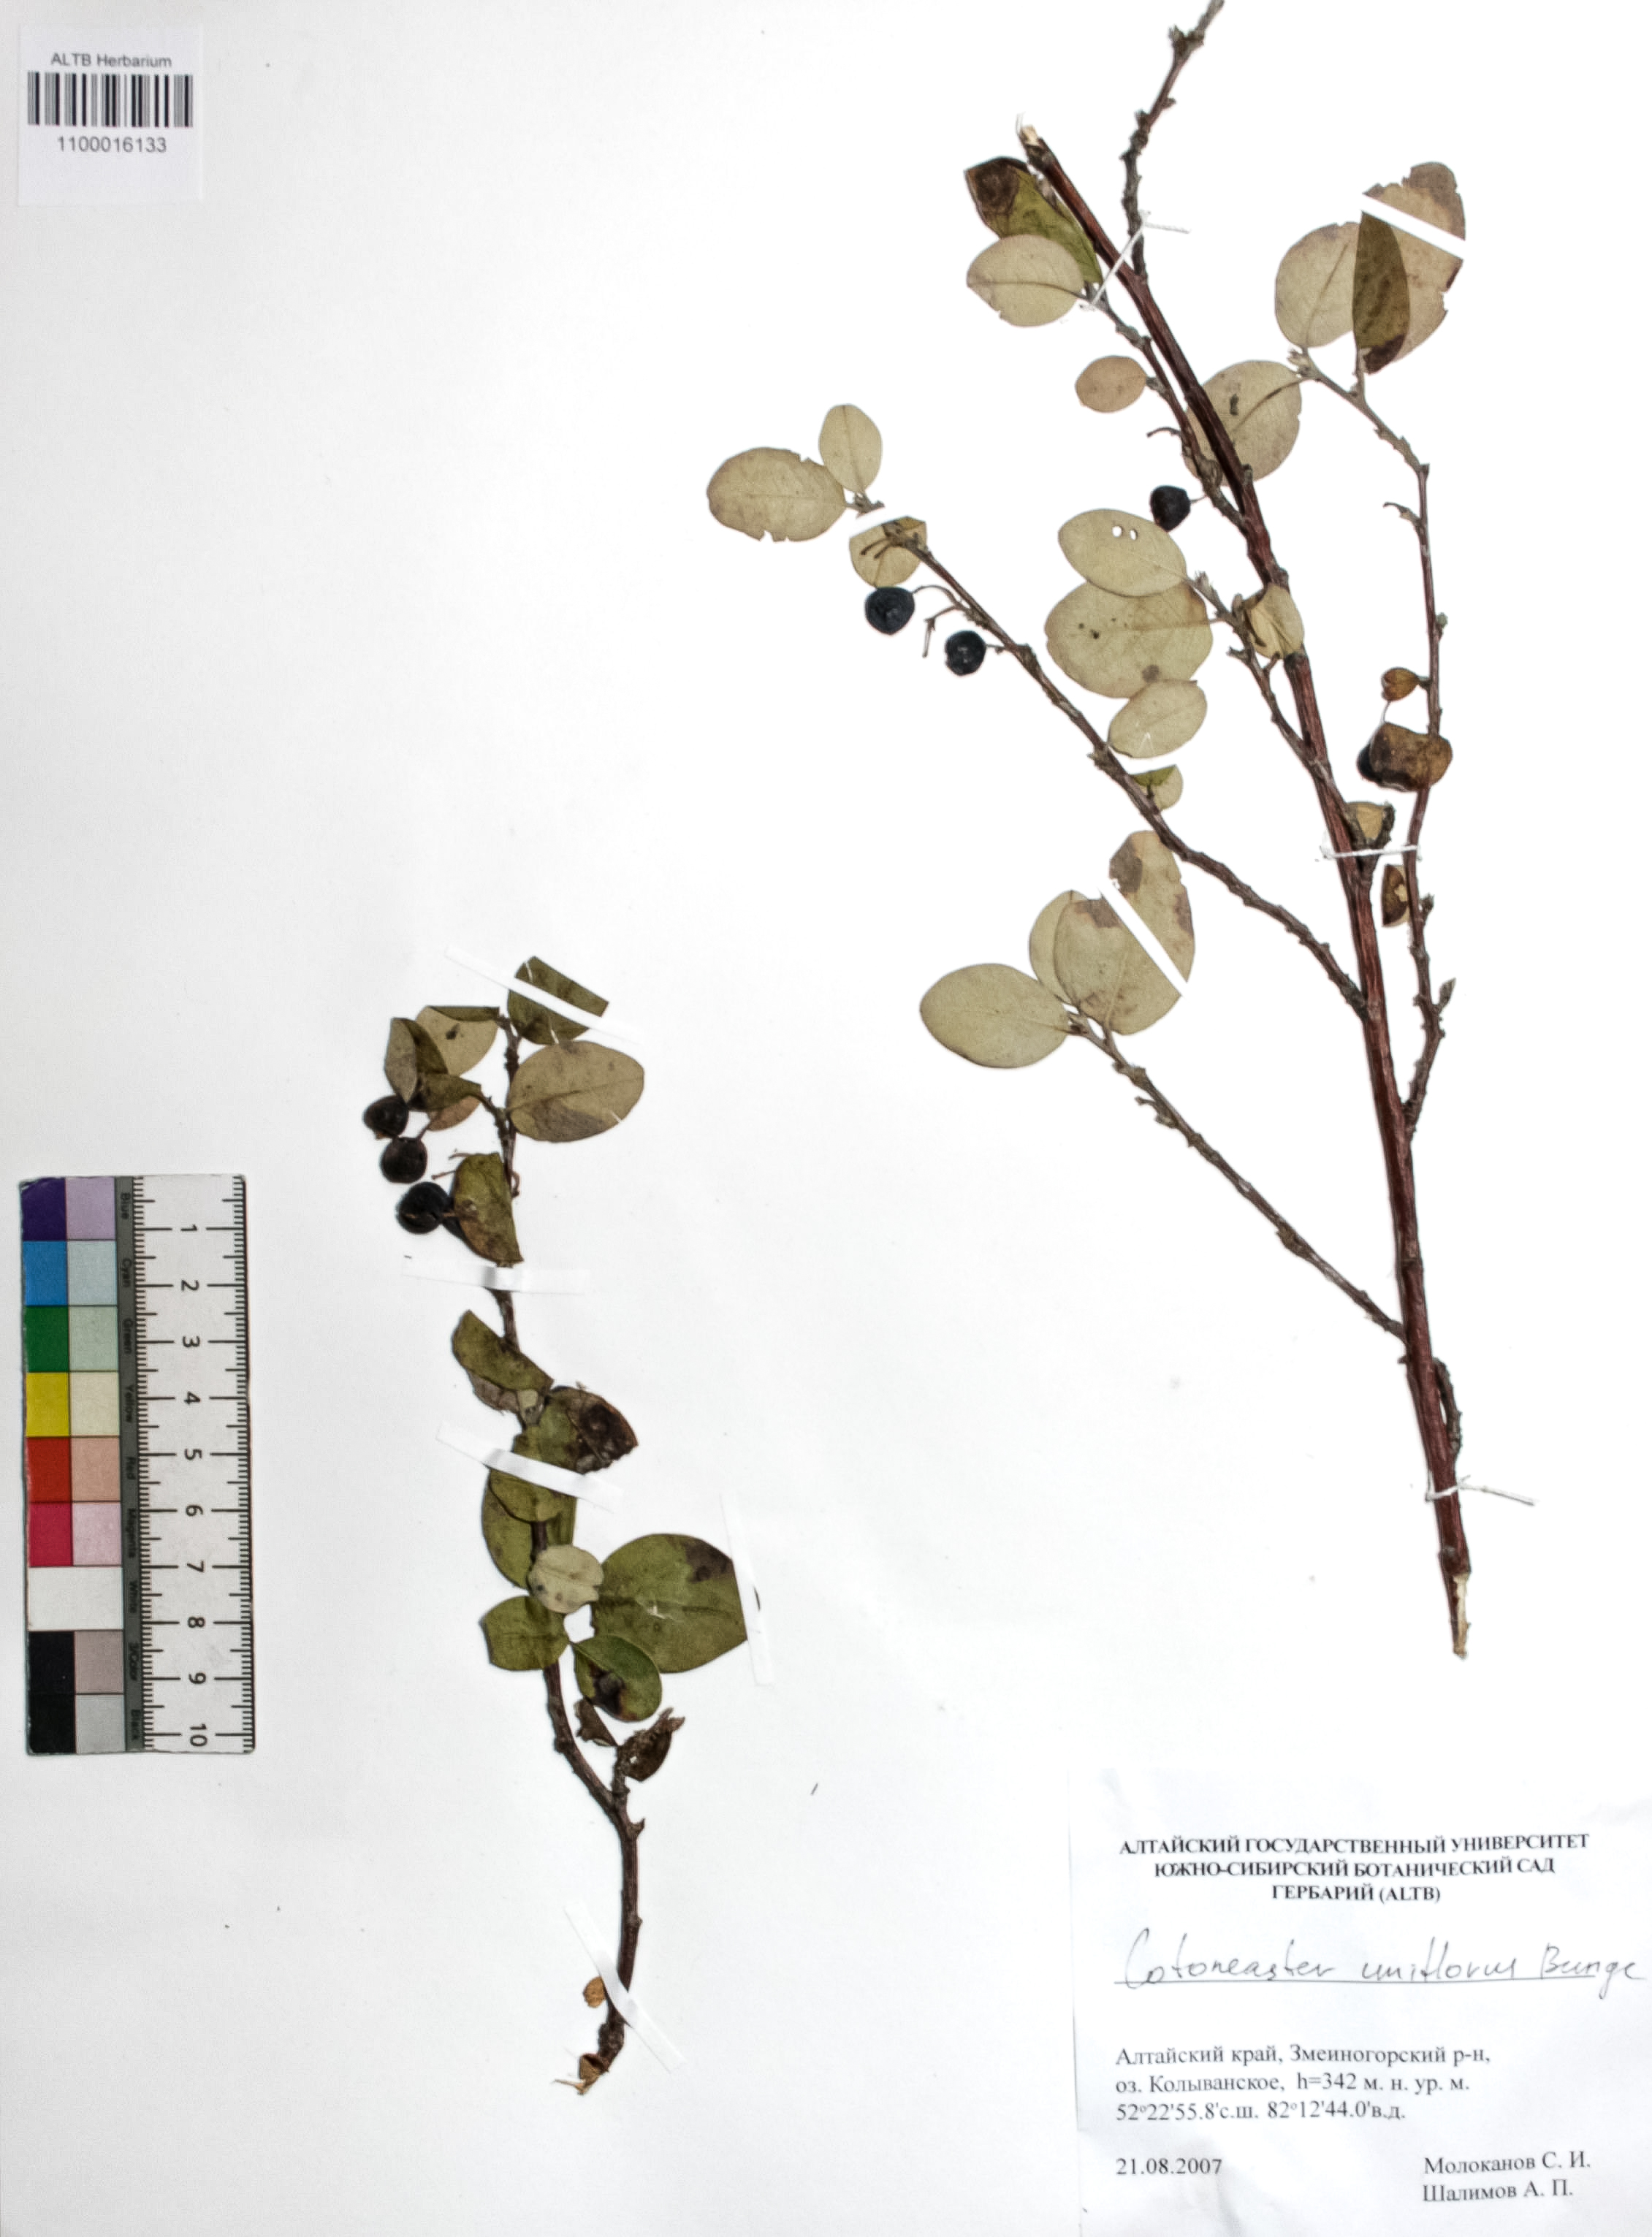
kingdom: Plantae
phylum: Tracheophyta
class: Magnoliopsida
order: Rosales
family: Rosaceae
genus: Cotoneaster
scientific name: Cotoneaster uniflorus
